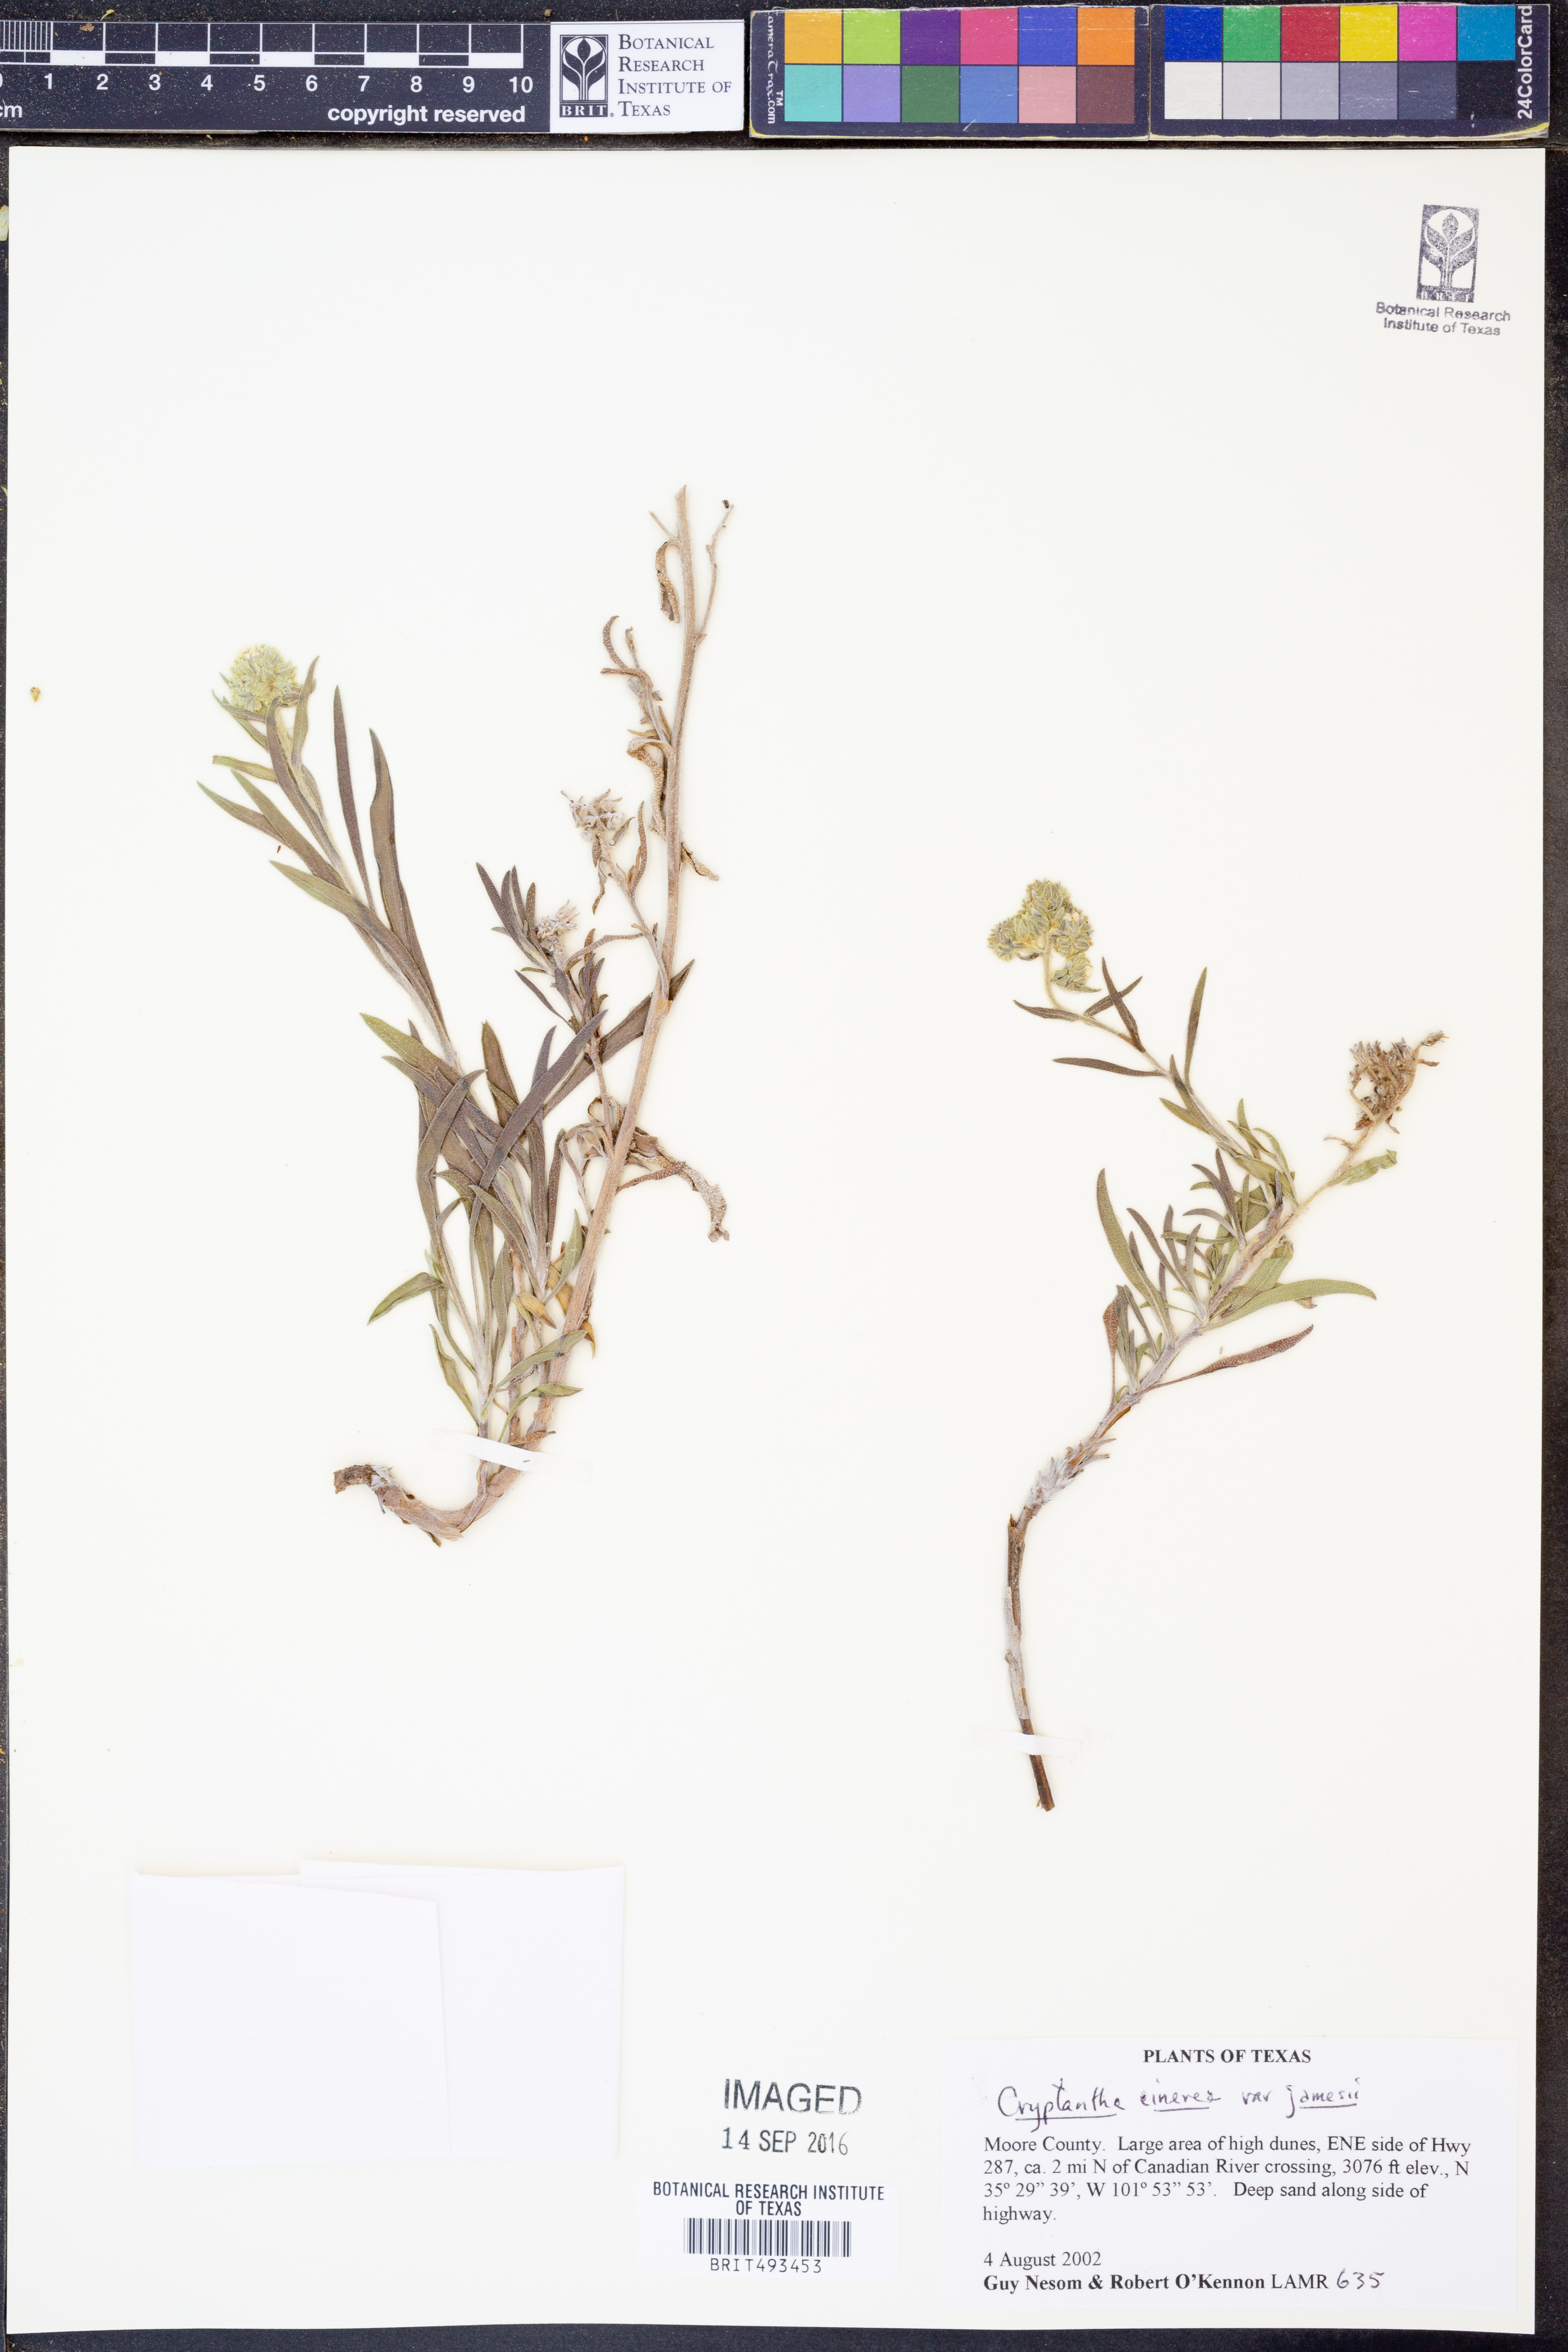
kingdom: Plantae
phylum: Tracheophyta
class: Magnoliopsida
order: Boraginales
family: Boraginaceae
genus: Oreocarya
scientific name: Oreocarya suffruticosa
